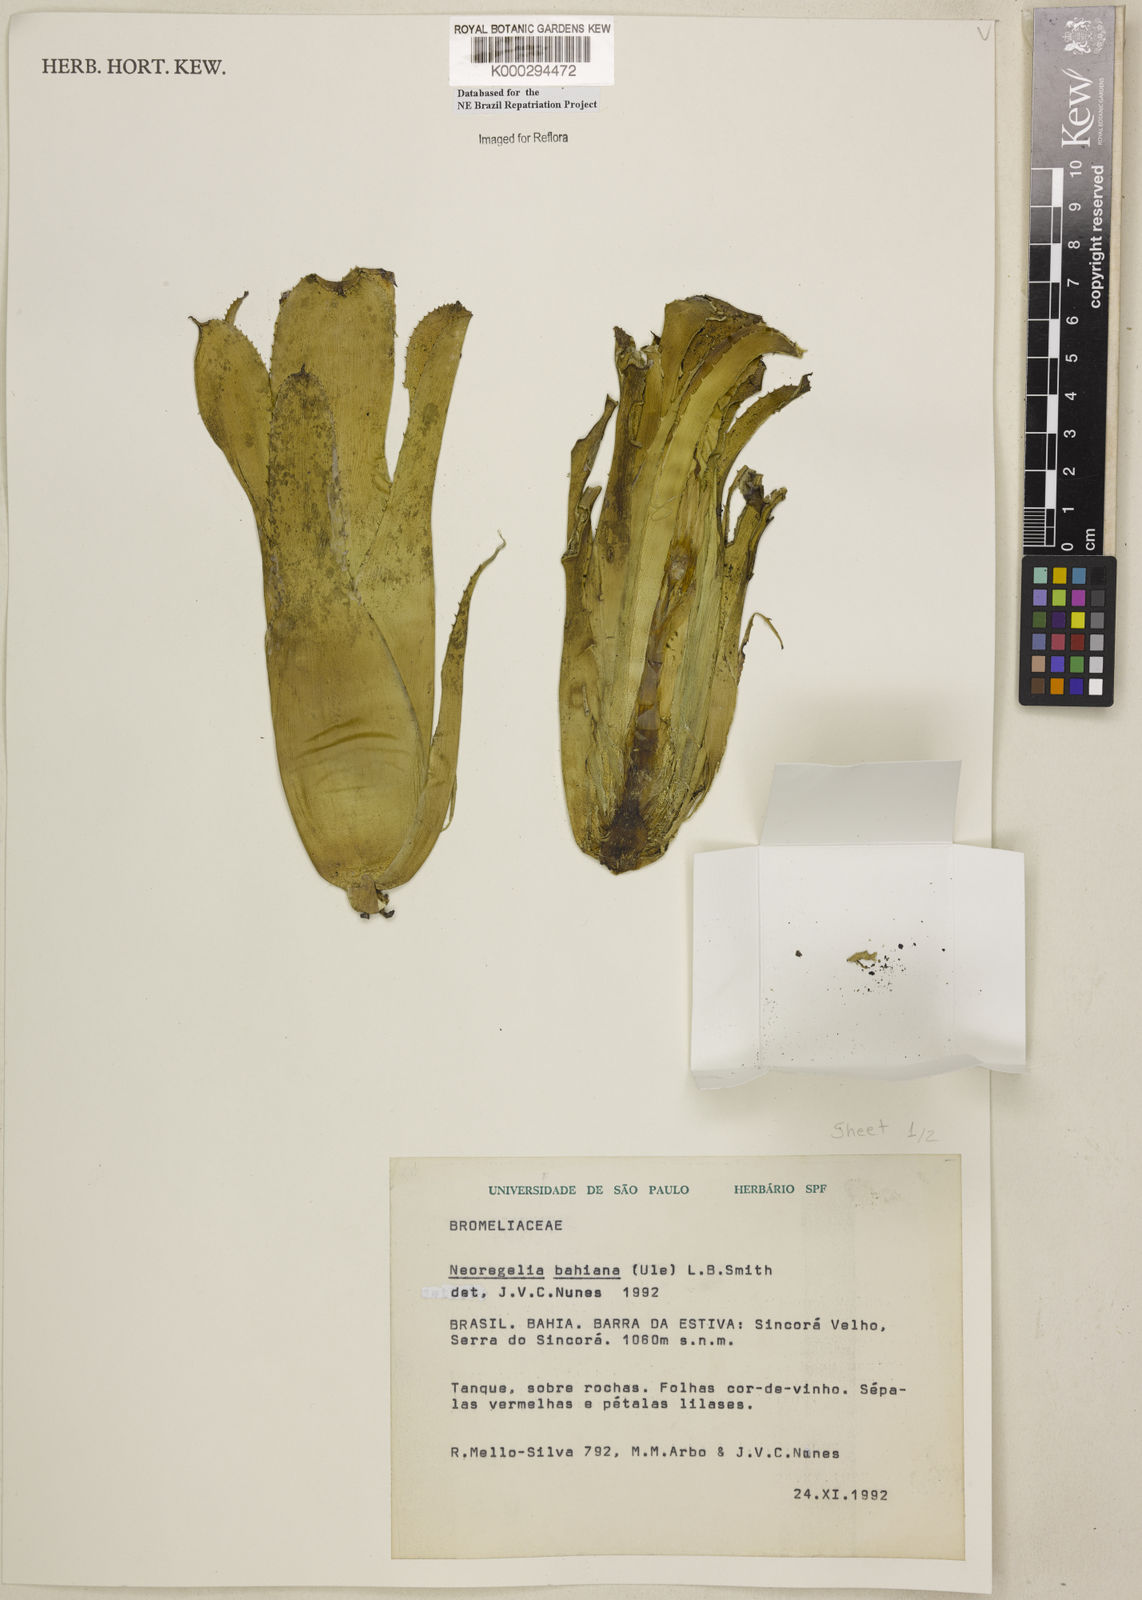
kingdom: Plantae
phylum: Tracheophyta
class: Liliopsida
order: Poales
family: Bromeliaceae
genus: Neoregelia
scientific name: Neoregelia bahiana
